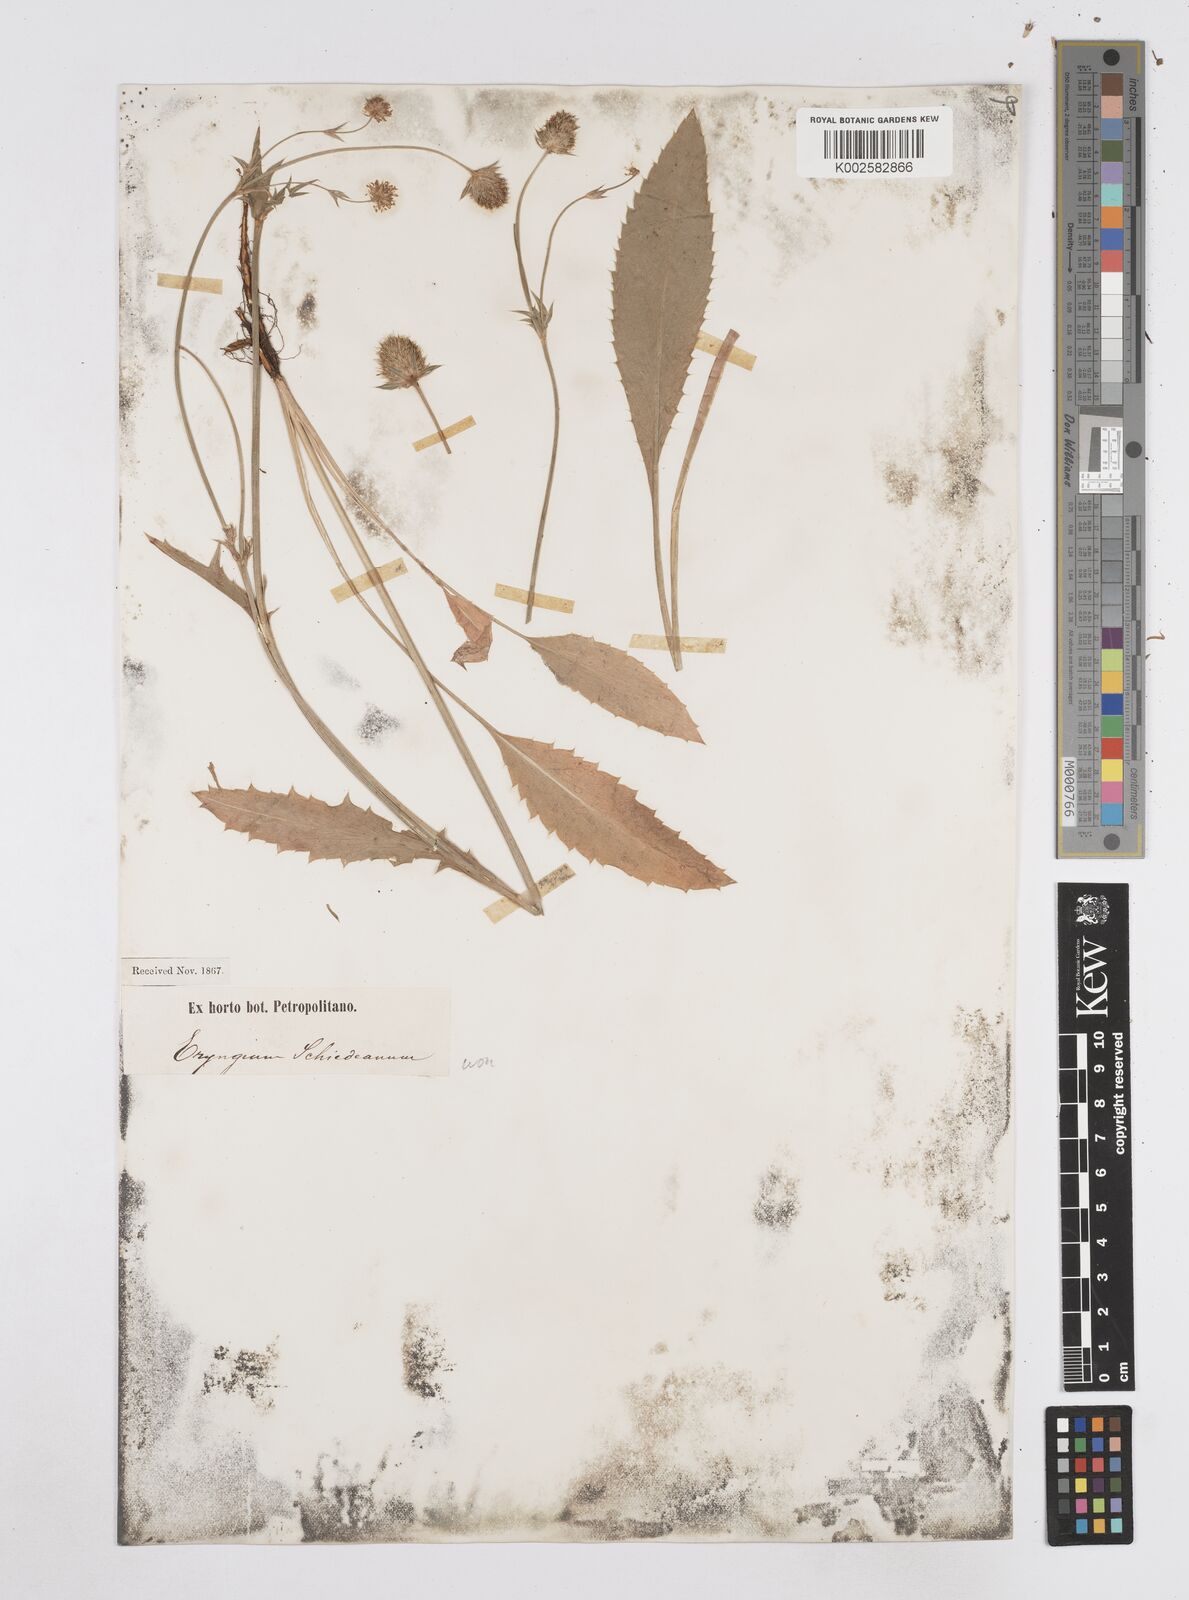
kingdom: Plantae
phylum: Tracheophyta
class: Magnoliopsida
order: Apiales
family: Apiaceae
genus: Eryngium
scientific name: Eryngium serratum
